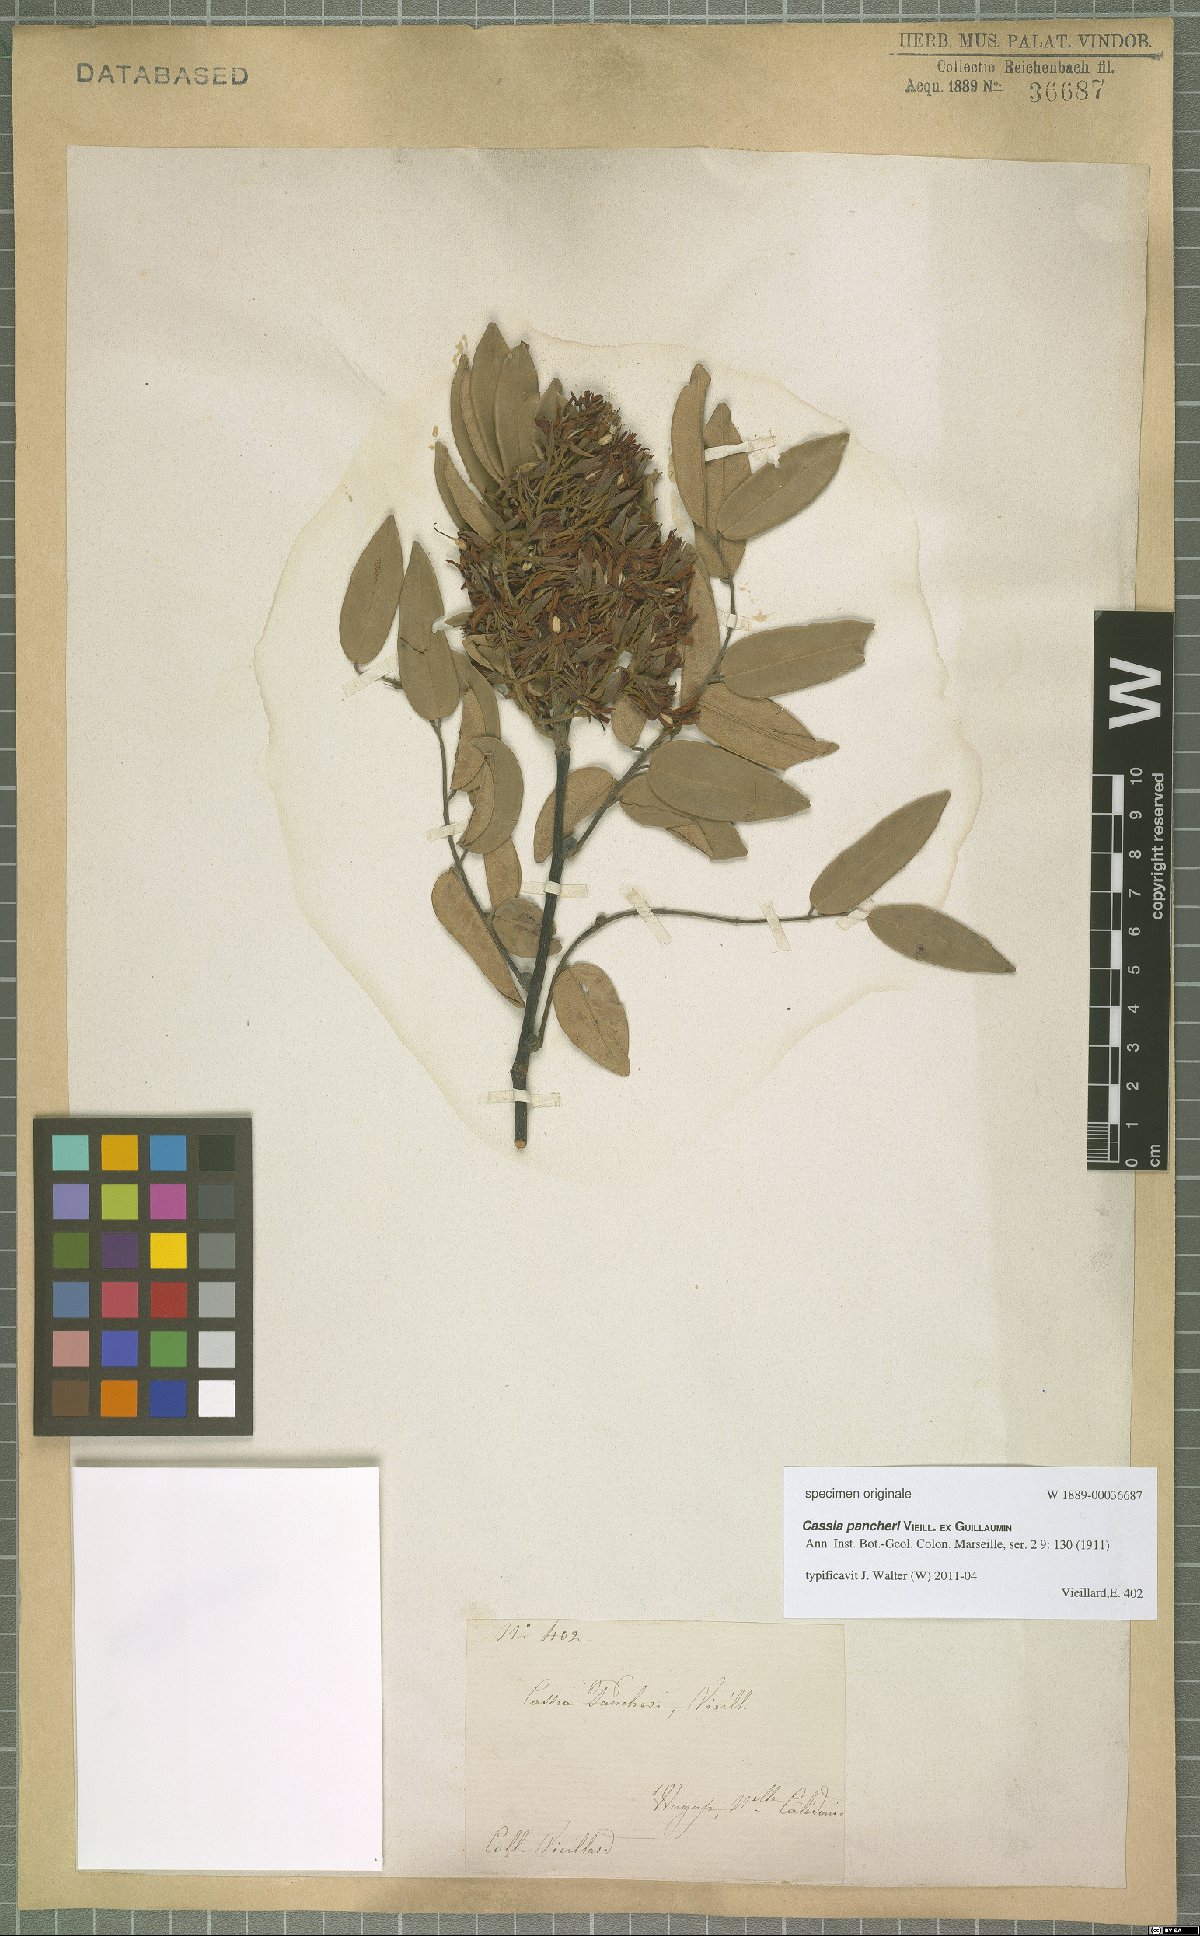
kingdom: Plantae
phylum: Tracheophyta
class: Magnoliopsida
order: Fabales
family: Fabaceae
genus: Cassia
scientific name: Cassia pancheri
